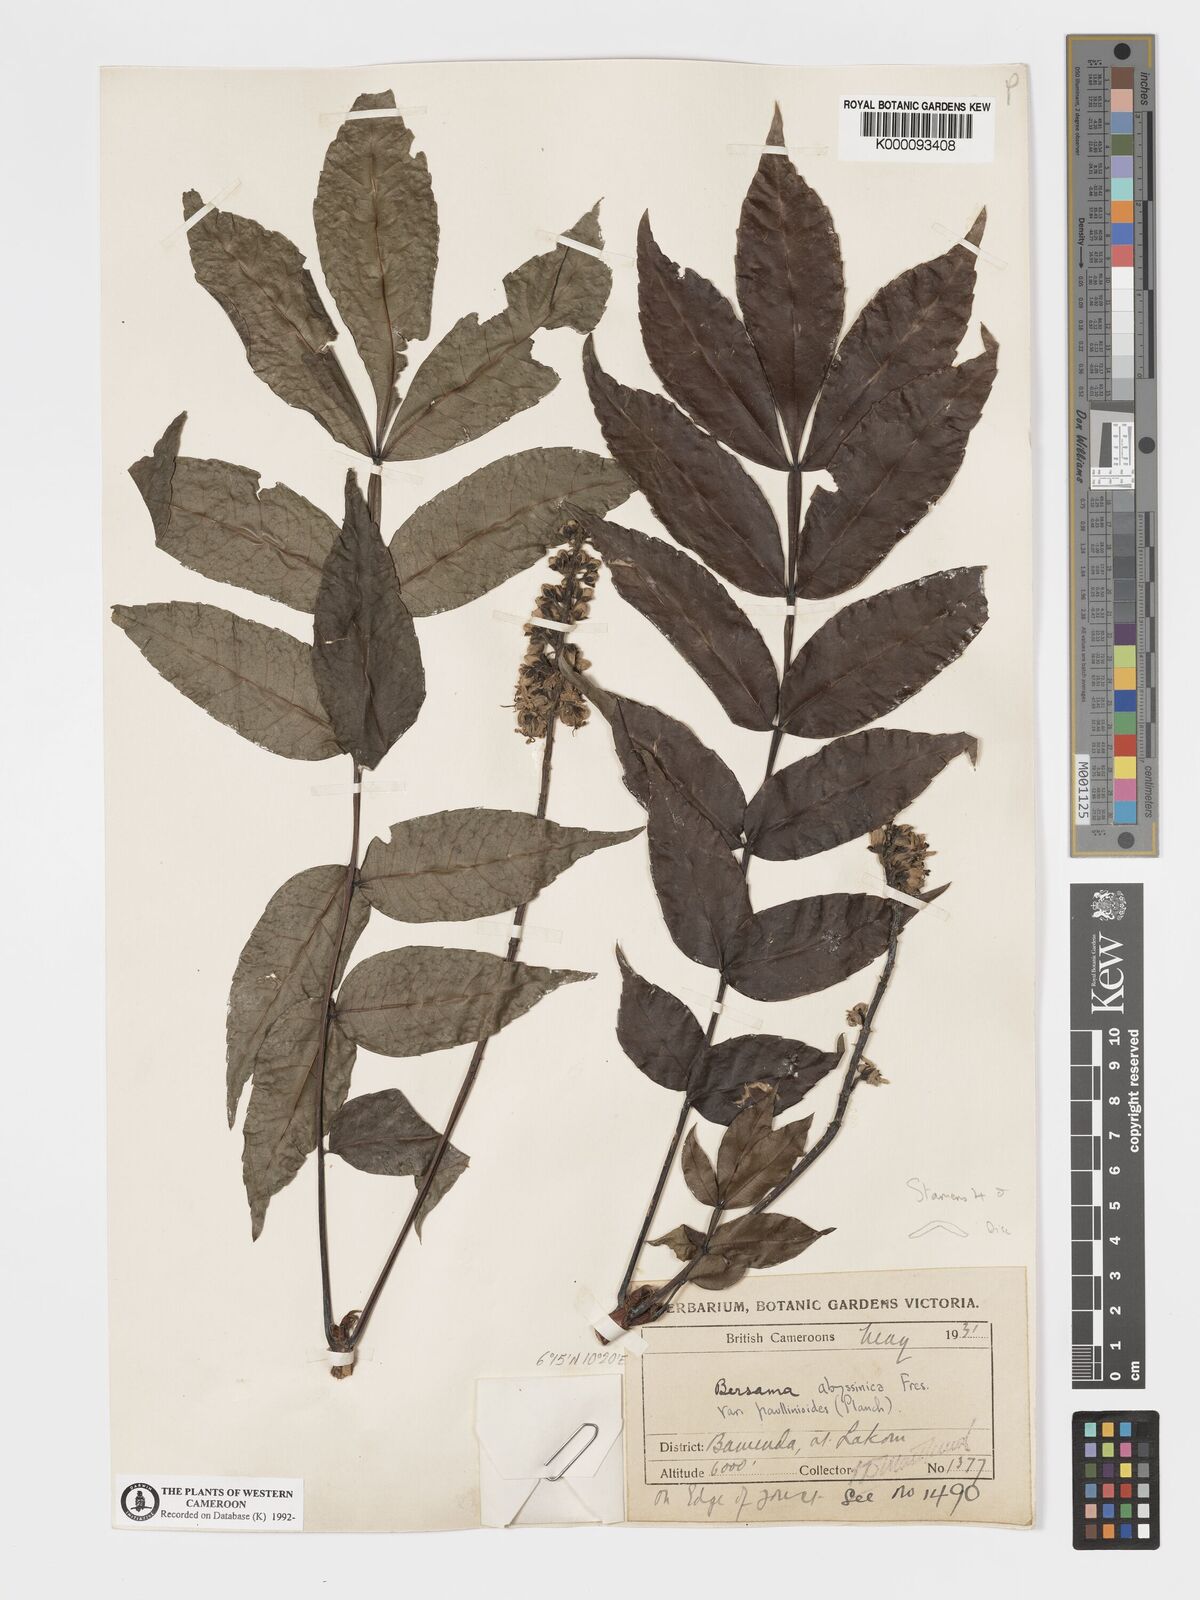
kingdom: Plantae
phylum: Tracheophyta
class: Magnoliopsida
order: Geraniales
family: Melianthaceae
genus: Bersama
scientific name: Bersama abyssinica
